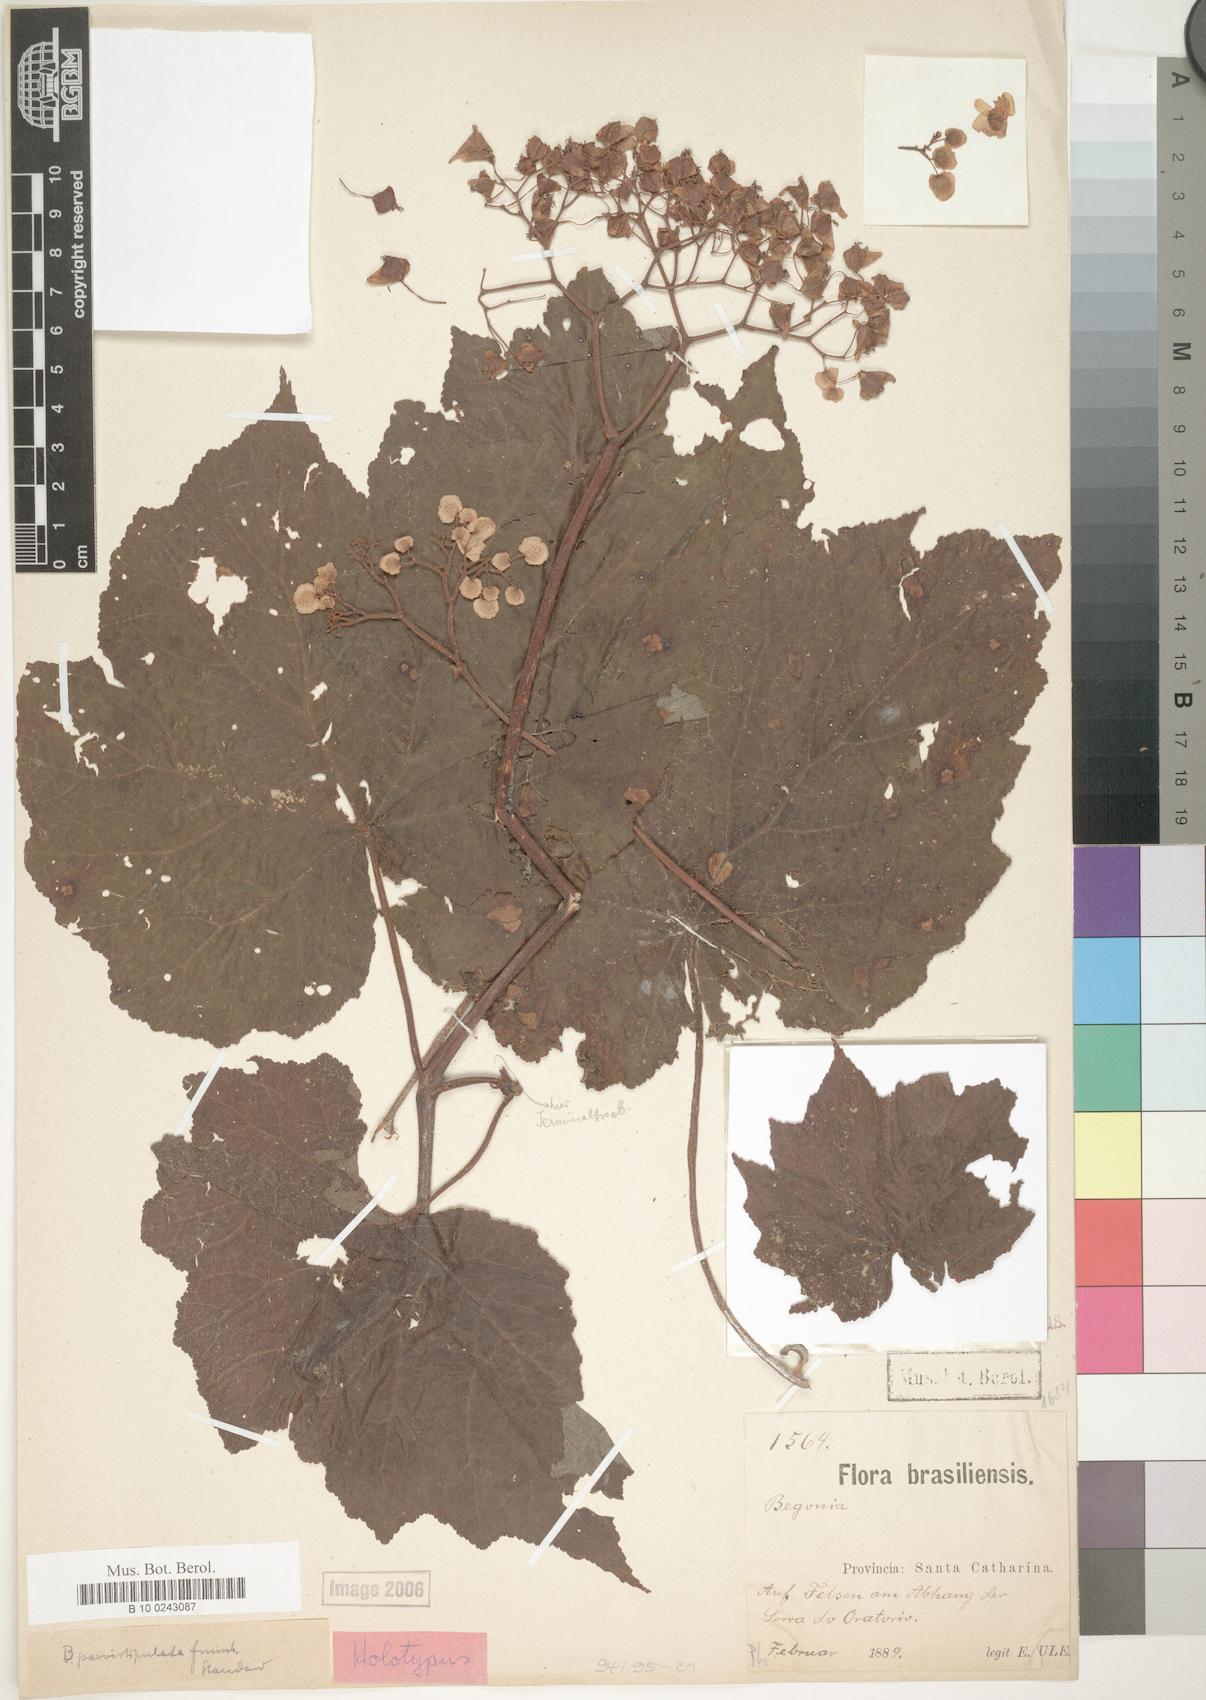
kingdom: Plantae
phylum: Tracheophyta
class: Magnoliopsida
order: Cucurbitales
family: Begoniaceae
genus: Begonia
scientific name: Begonia parvistipulata
